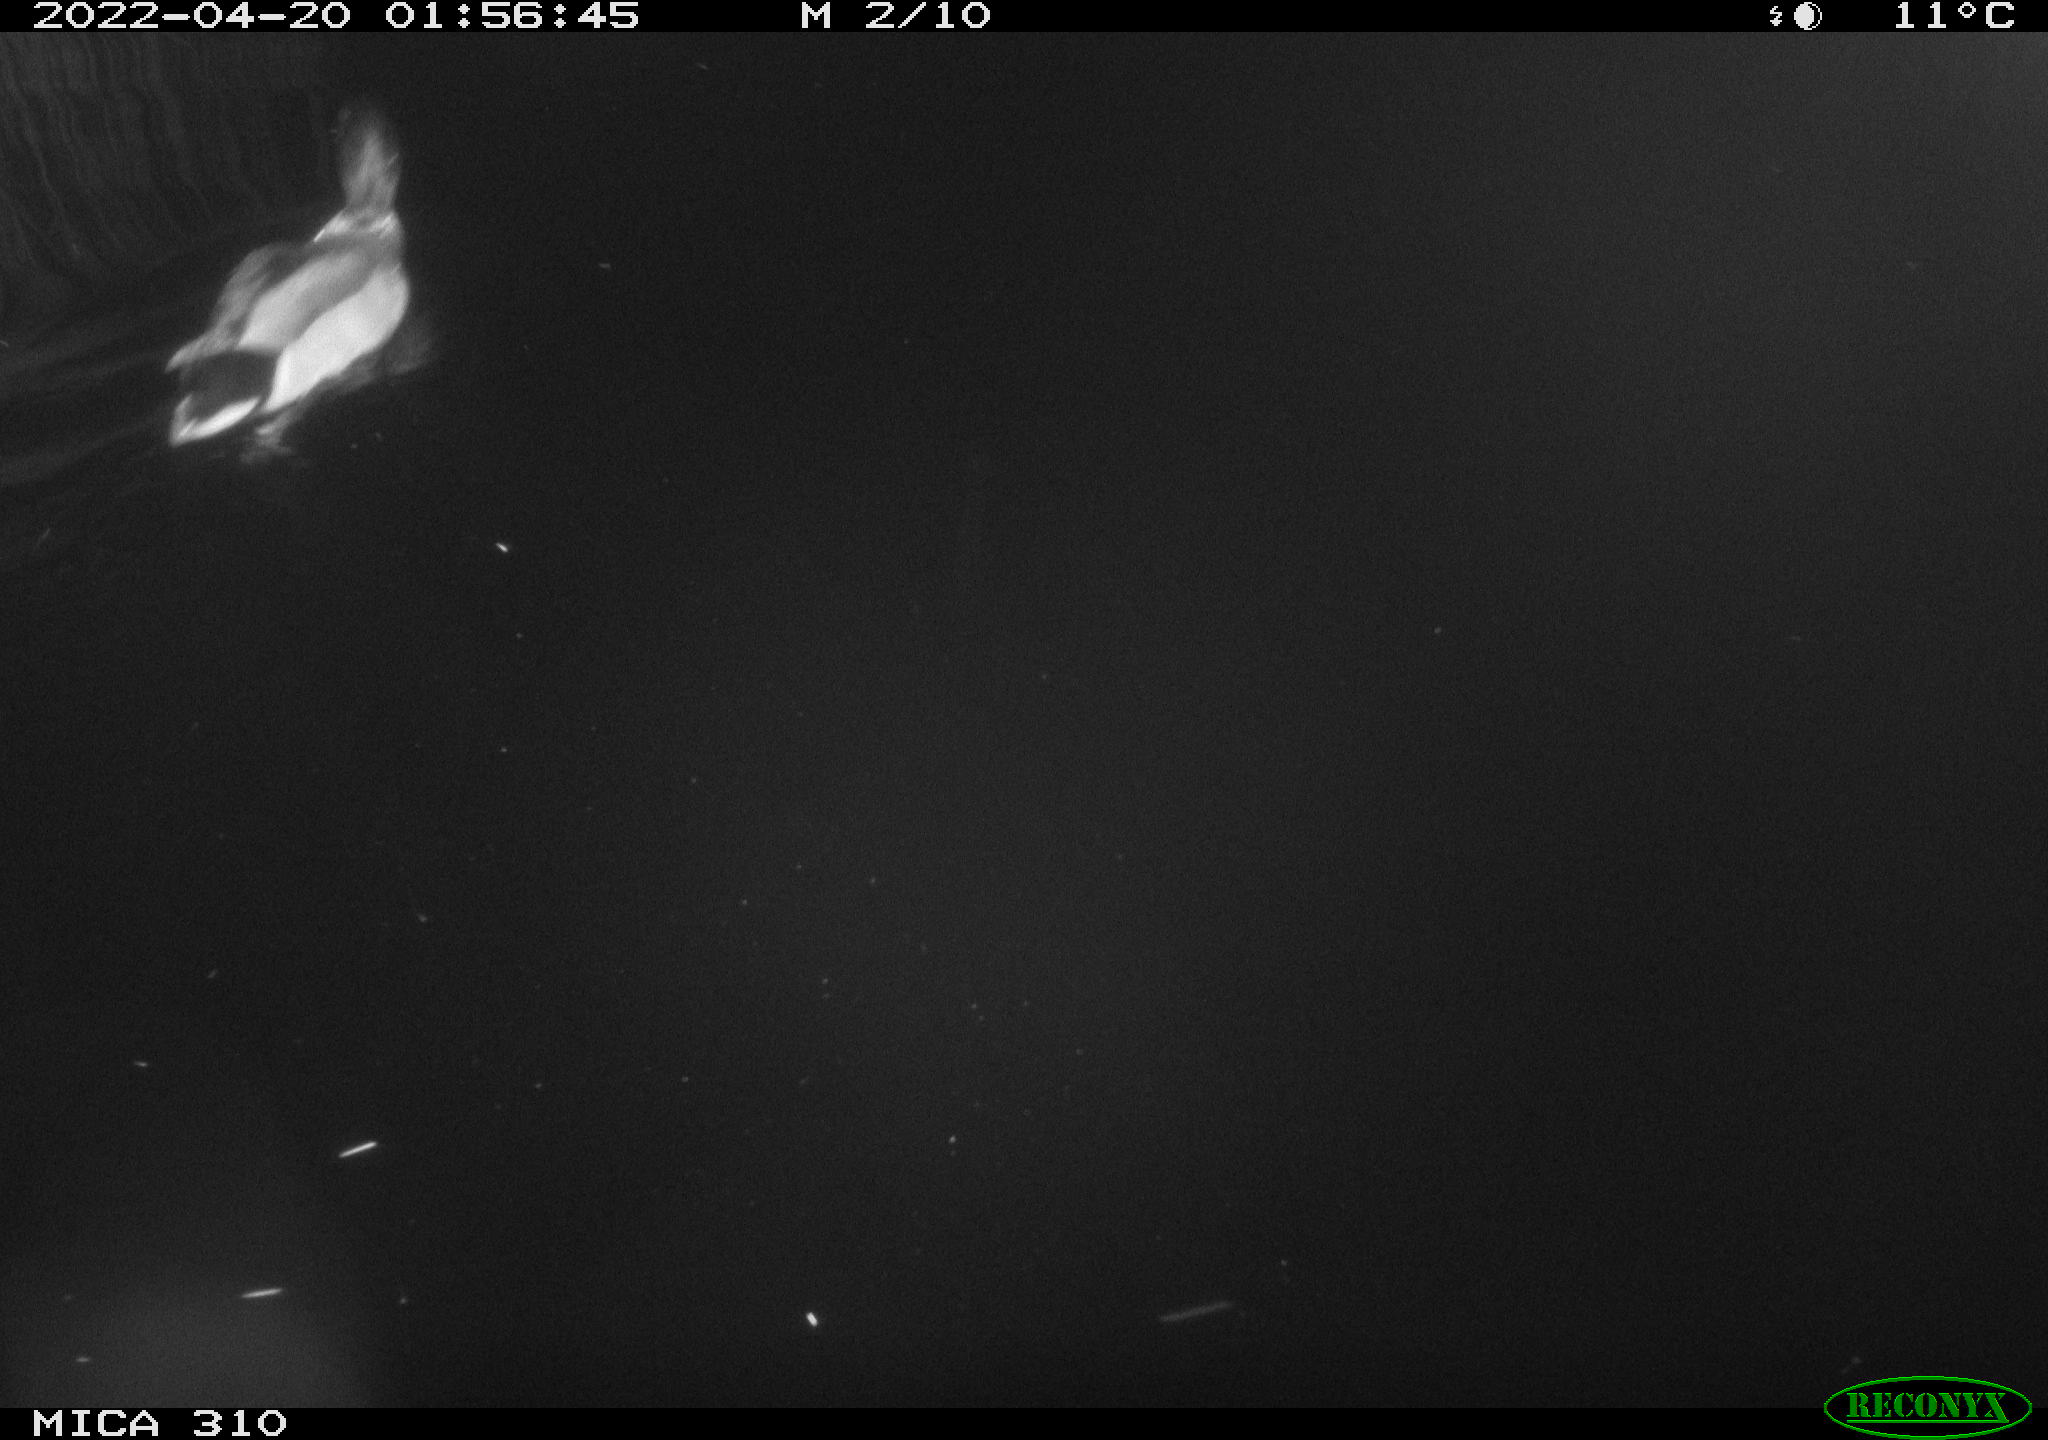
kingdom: Animalia
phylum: Chordata
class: Aves
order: Anseriformes
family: Anatidae
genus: Anas
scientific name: Anas platyrhynchos
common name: Mallard
